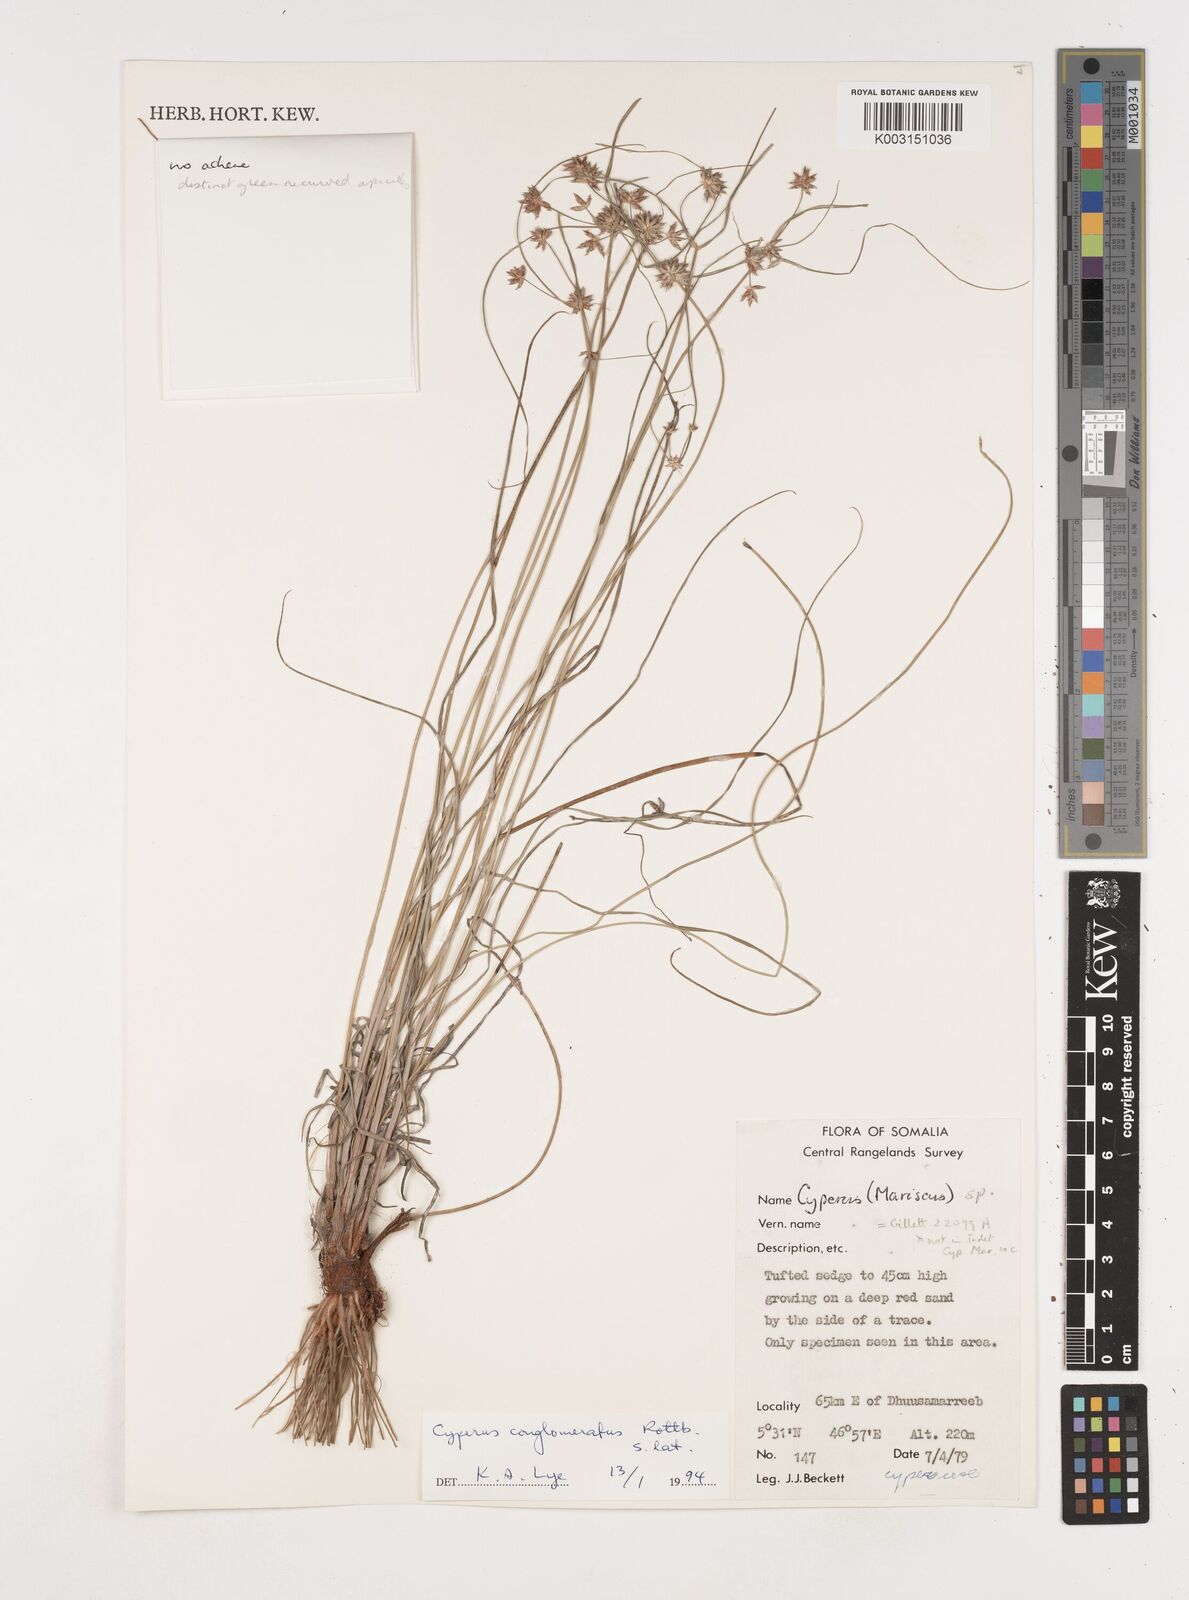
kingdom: Plantae
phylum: Tracheophyta
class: Liliopsida
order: Poales
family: Cyperaceae
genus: Cyperus
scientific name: Cyperus conglomeratus
